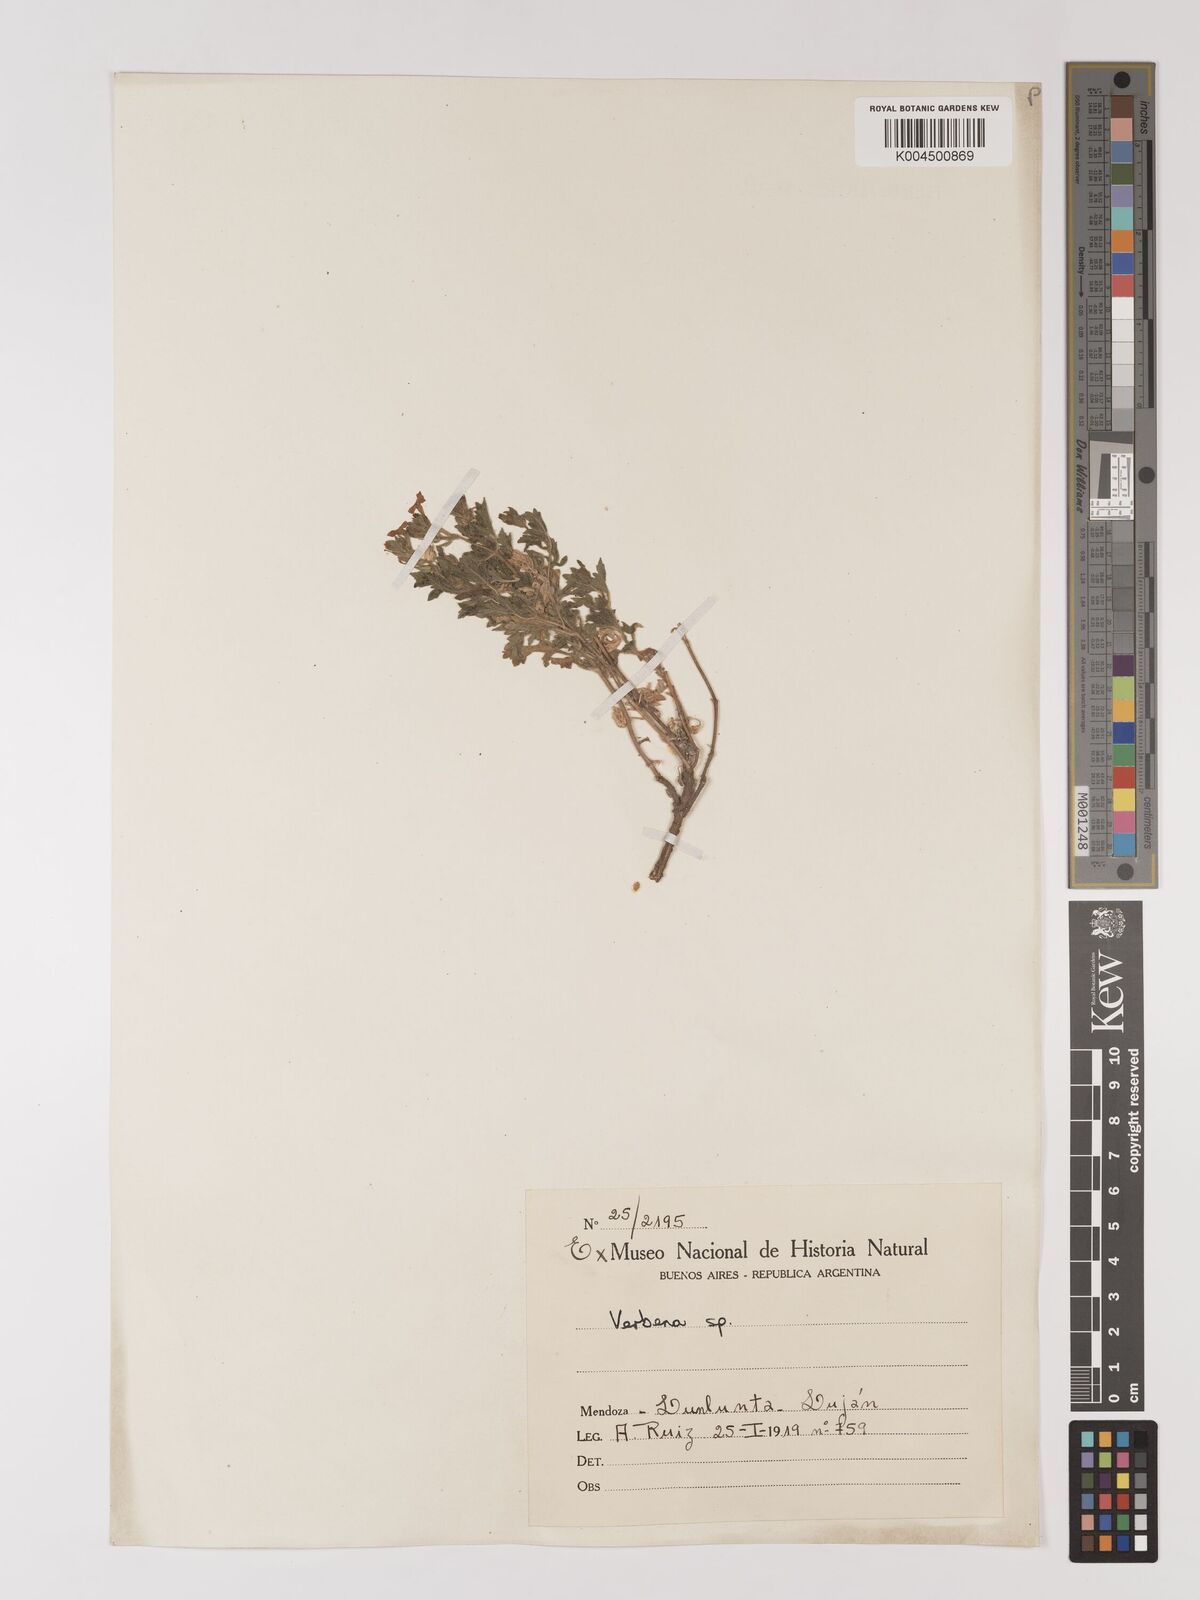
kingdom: Plantae
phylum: Tracheophyta
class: Magnoliopsida
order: Lamiales
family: Verbenaceae
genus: Verbena
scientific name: Verbena
